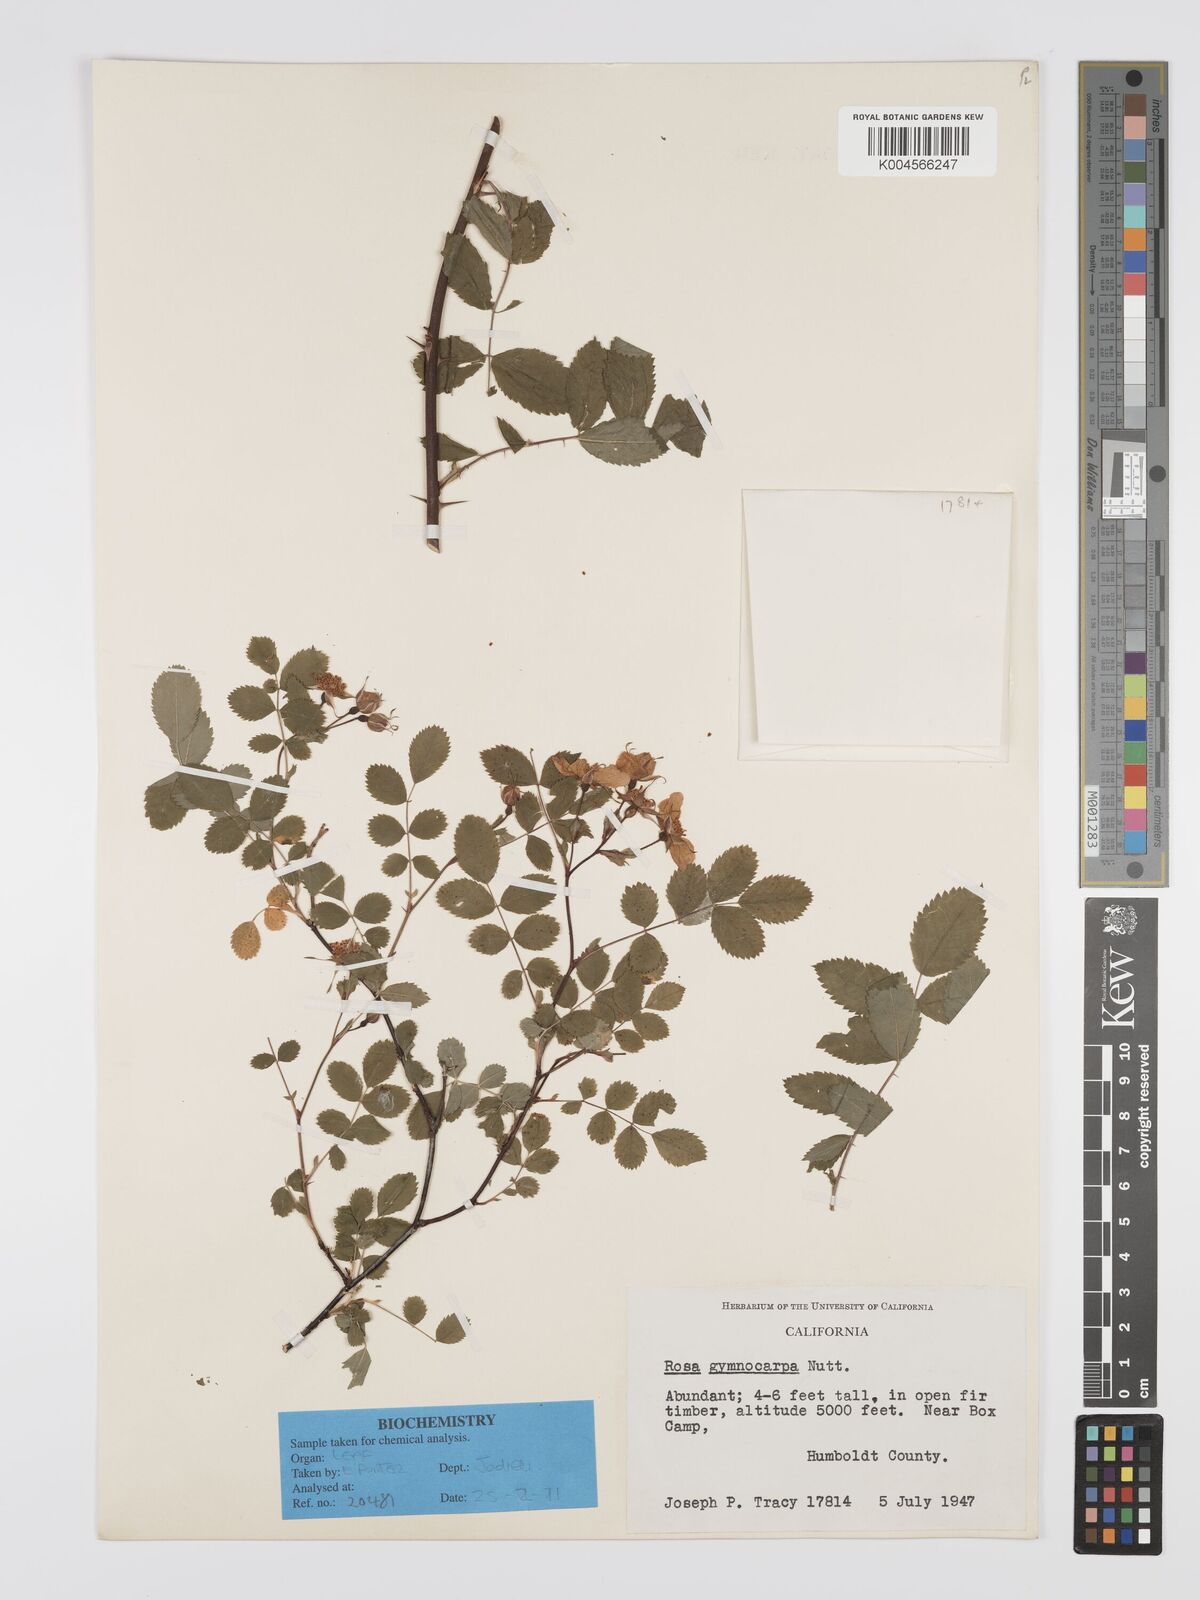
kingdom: Plantae
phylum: Tracheophyta
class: Magnoliopsida
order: Rosales
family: Rosaceae
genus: Rosa
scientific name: Rosa gymnocarpa
